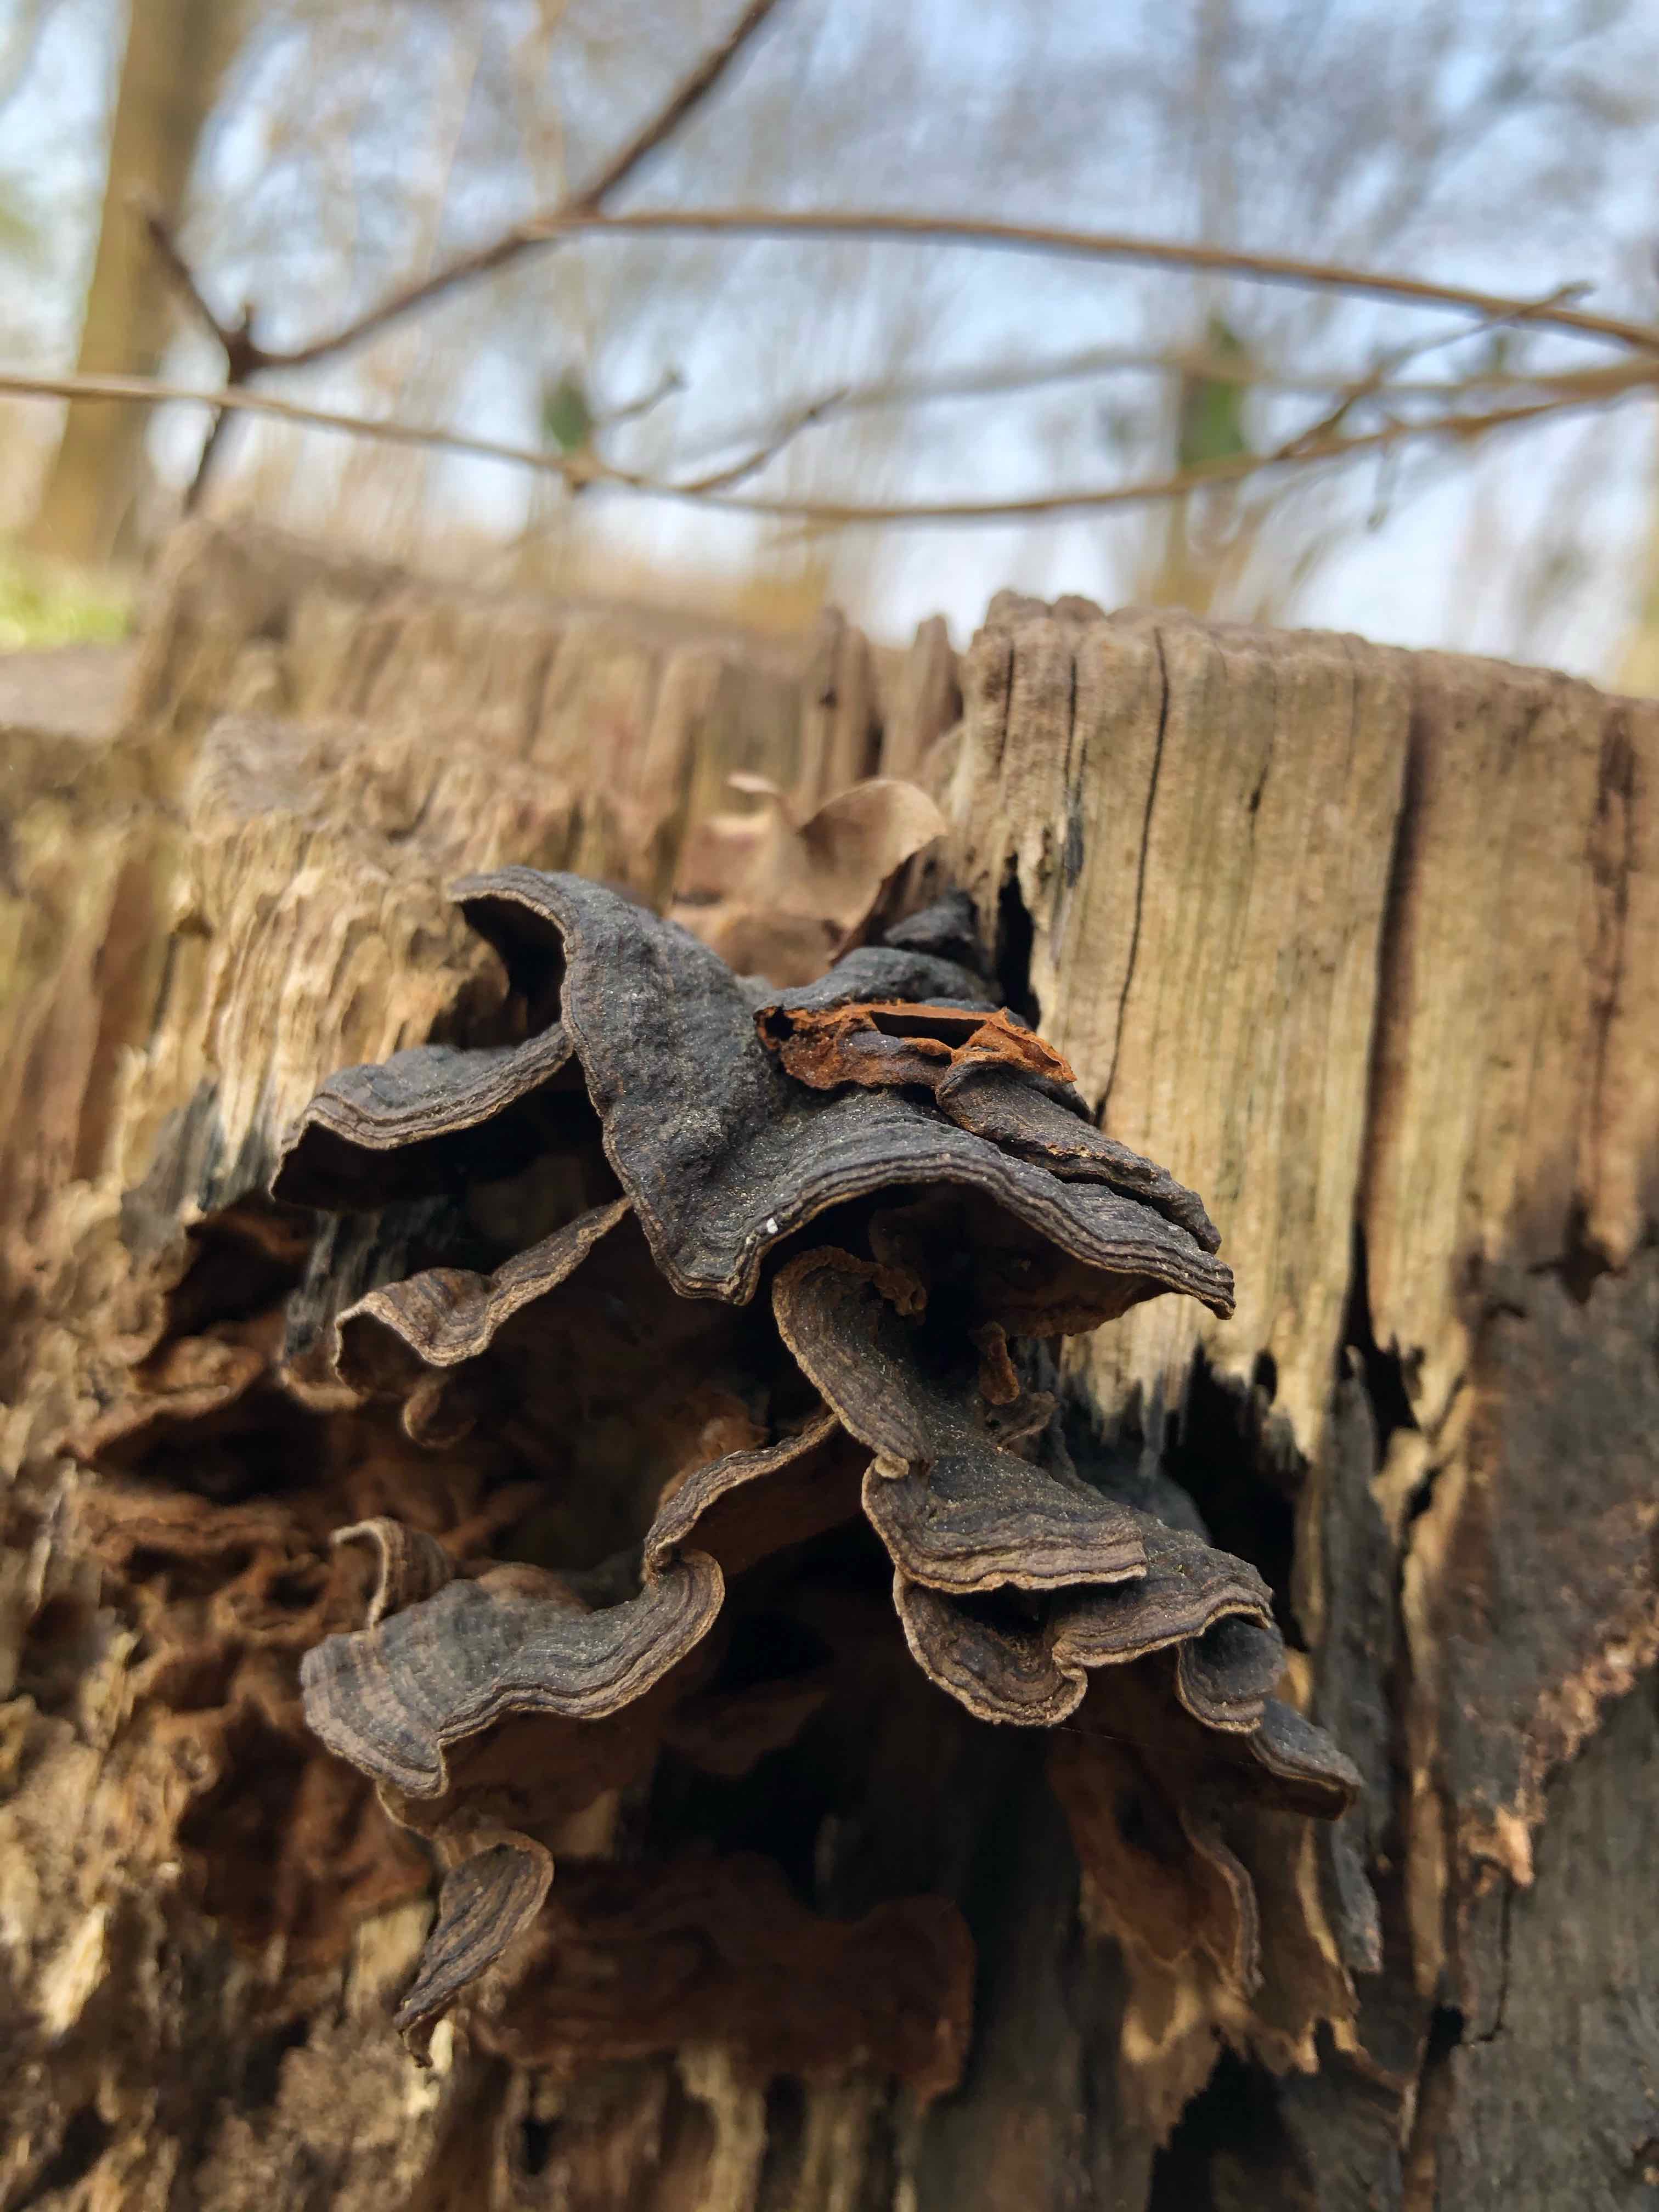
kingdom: Fungi
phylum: Basidiomycota
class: Agaricomycetes
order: Hymenochaetales
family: Hymenochaetaceae
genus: Hymenochaete
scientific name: Hymenochaete rubiginosa
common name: stiv ruslædersvamp
